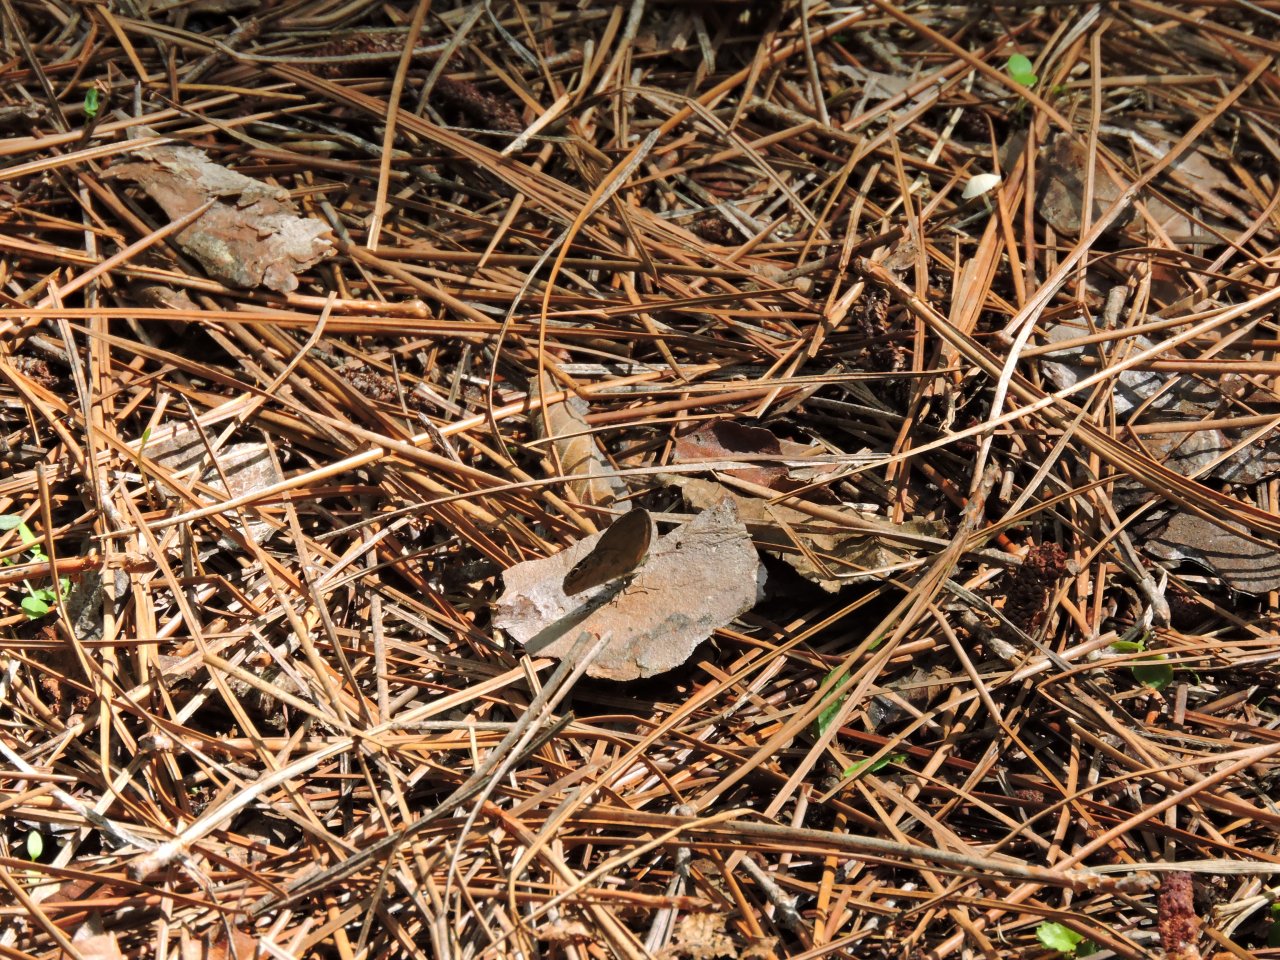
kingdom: Animalia
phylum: Arthropoda
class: Insecta
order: Lepidoptera
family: Nymphalidae
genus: Euptychia
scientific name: Euptychia cornelius
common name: Gemmed Satyr
